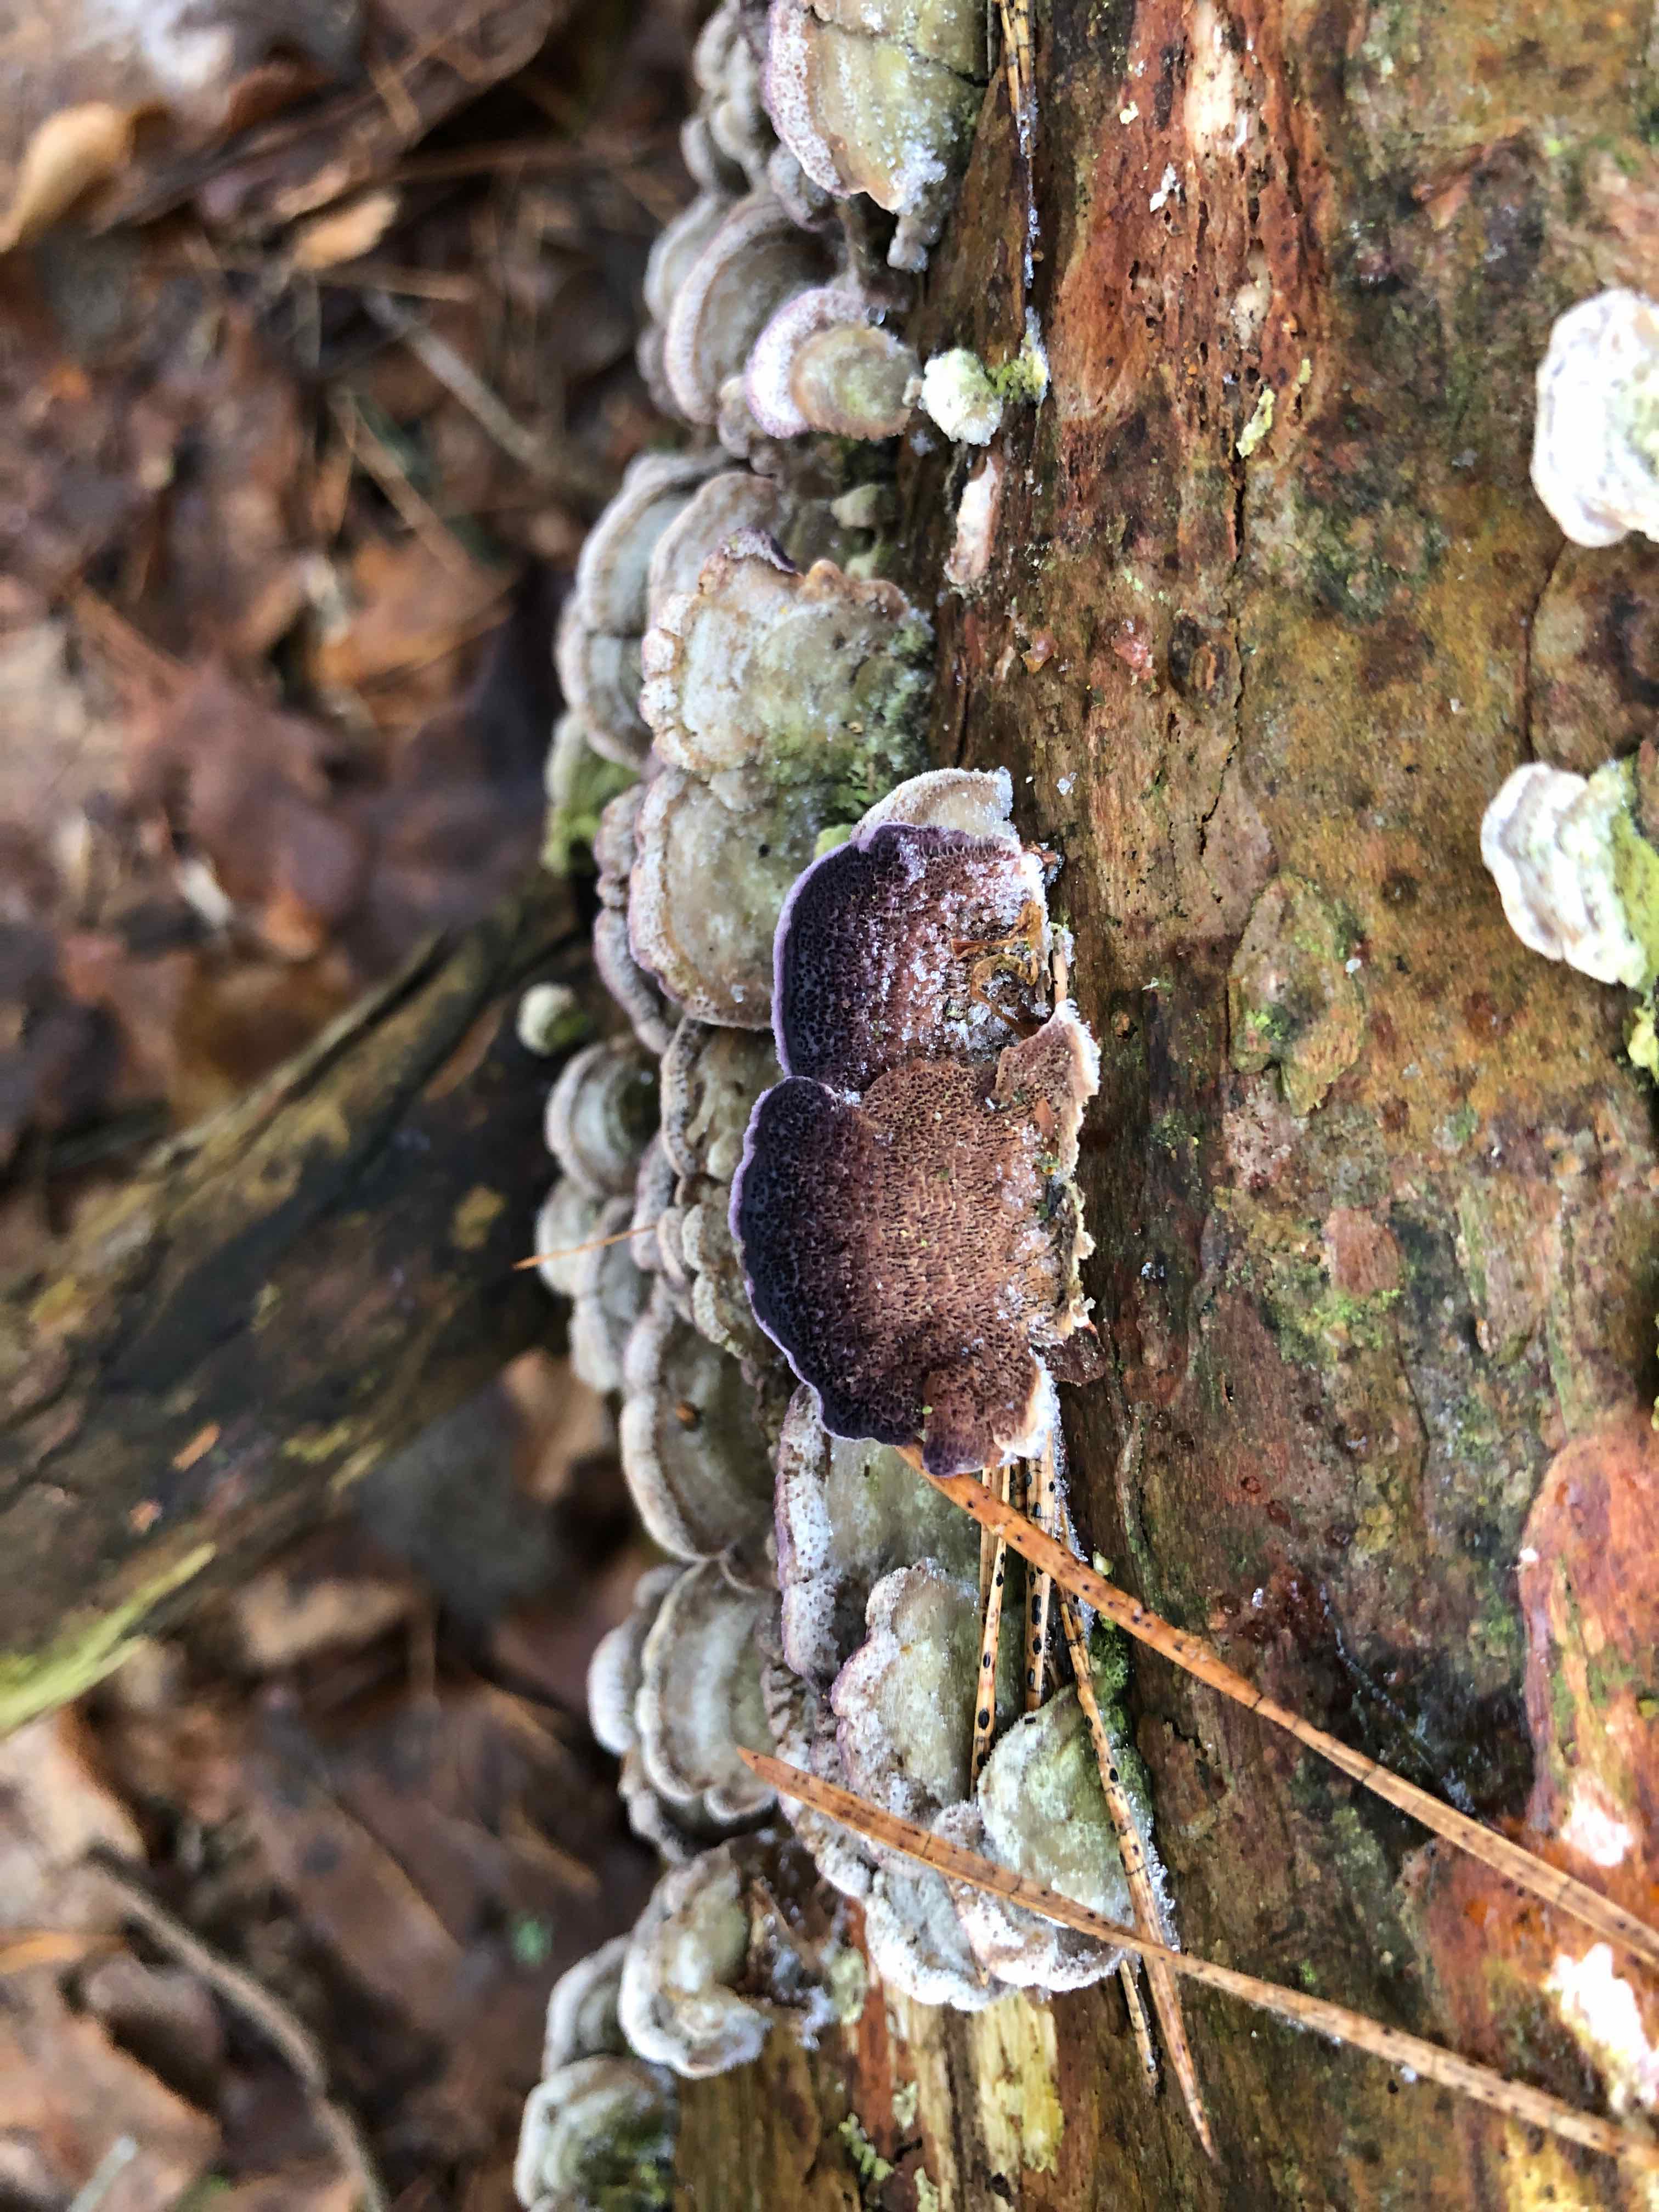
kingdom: Fungi
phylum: Basidiomycota
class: Agaricomycetes
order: Hymenochaetales
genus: Trichaptum
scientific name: Trichaptum abietinum
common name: almindelig violporesvamp
